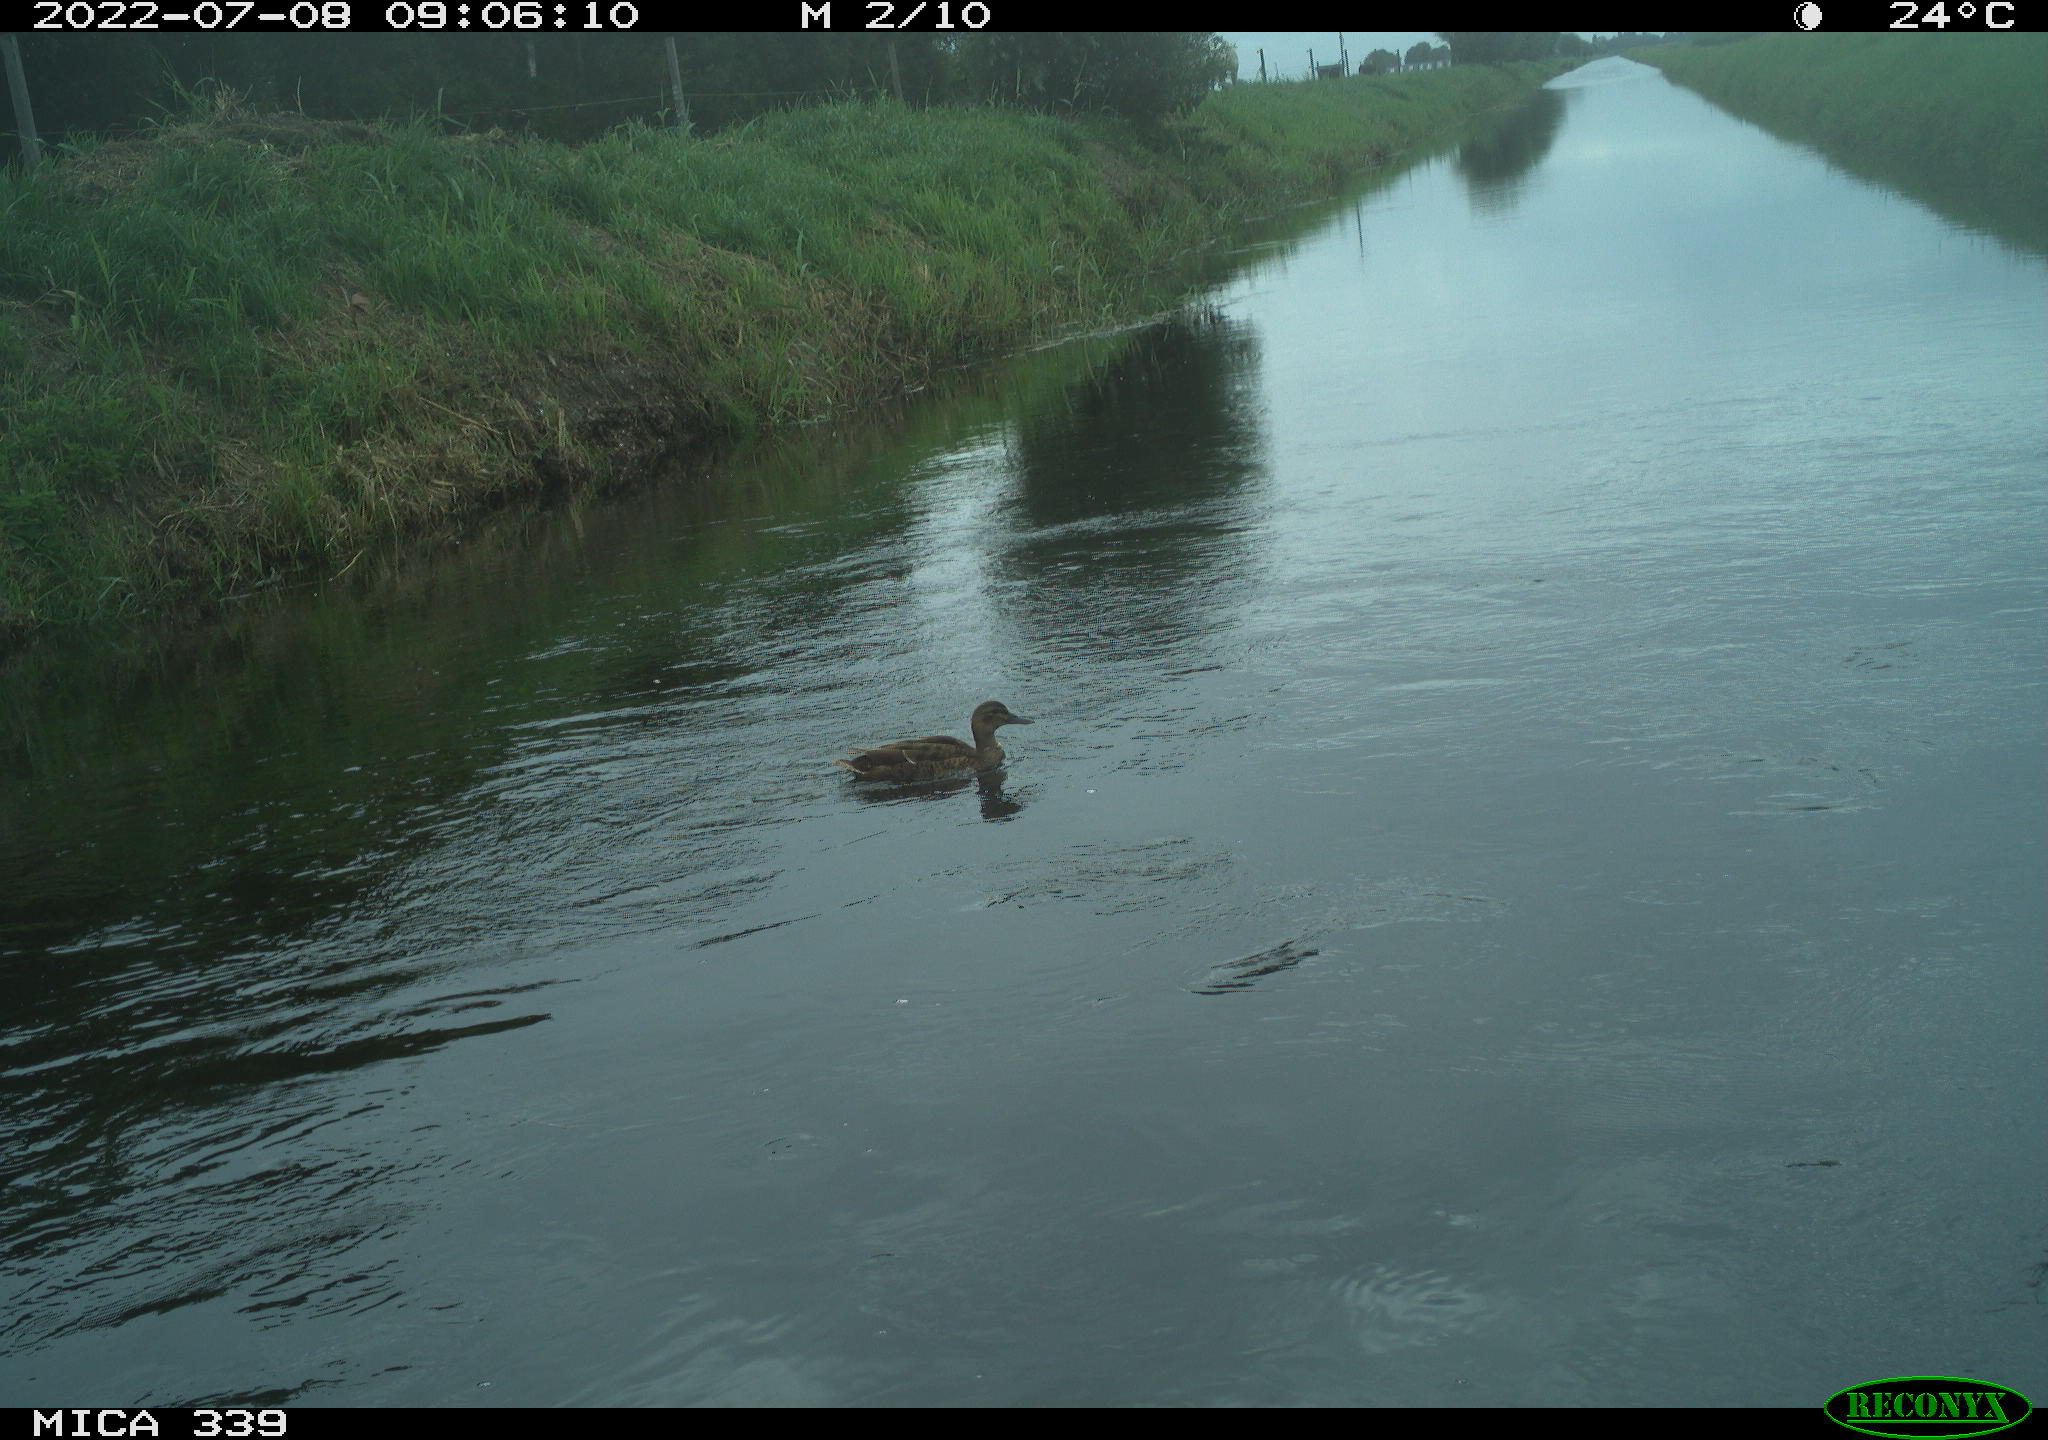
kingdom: Animalia
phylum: Chordata
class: Aves
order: Anseriformes
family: Anatidae
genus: Anas
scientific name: Anas platyrhynchos
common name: Mallard
